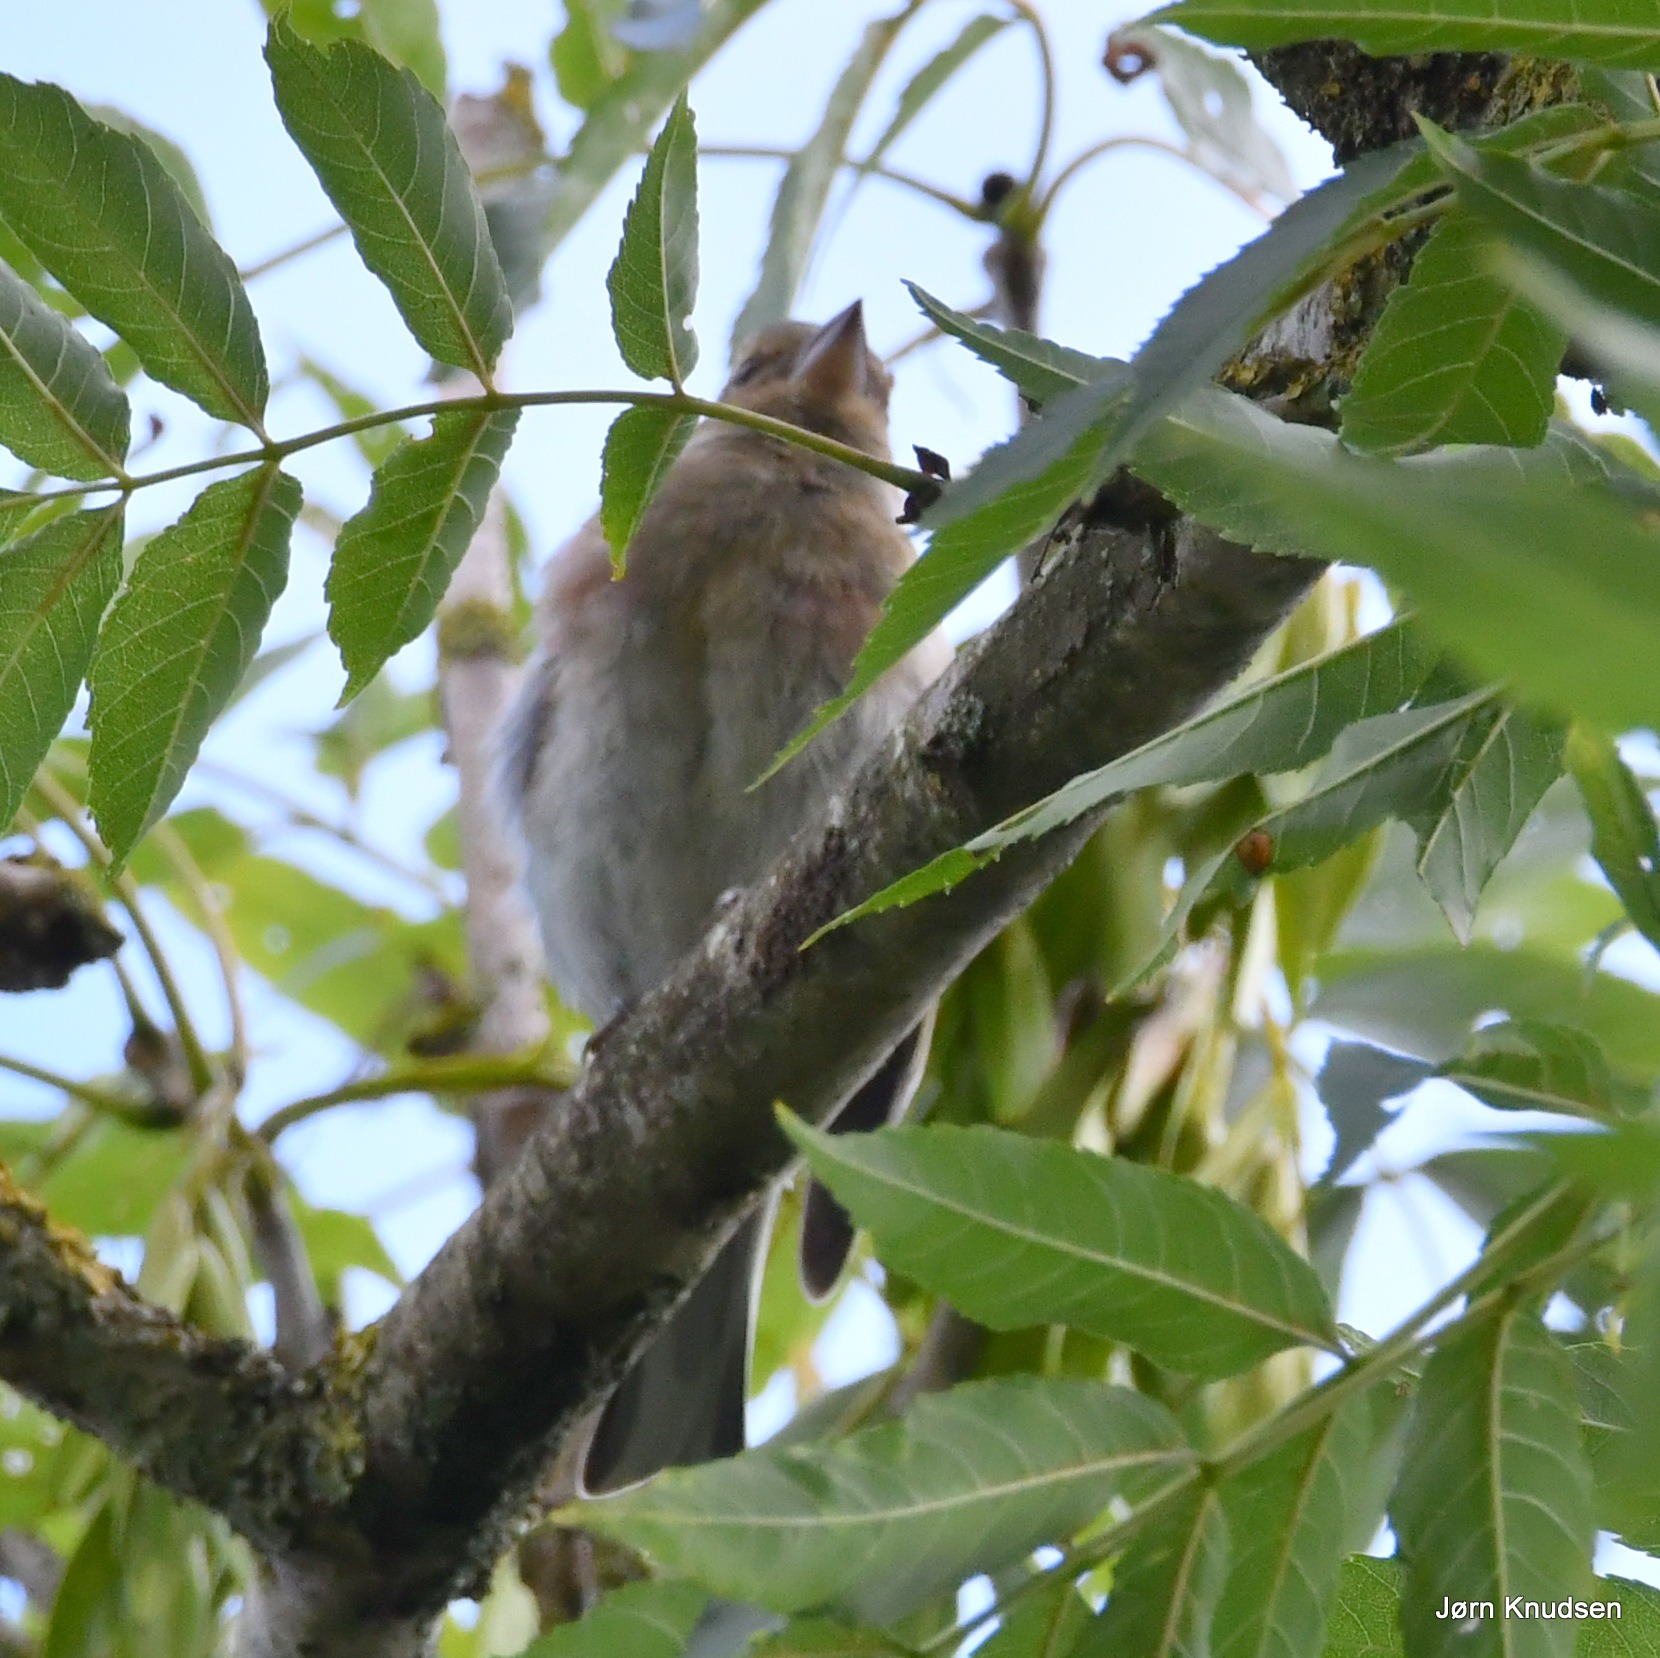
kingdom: Animalia
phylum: Chordata
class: Aves
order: Passeriformes
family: Fringillidae
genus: Fringilla
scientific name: Fringilla coelebs
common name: Bogfinke
